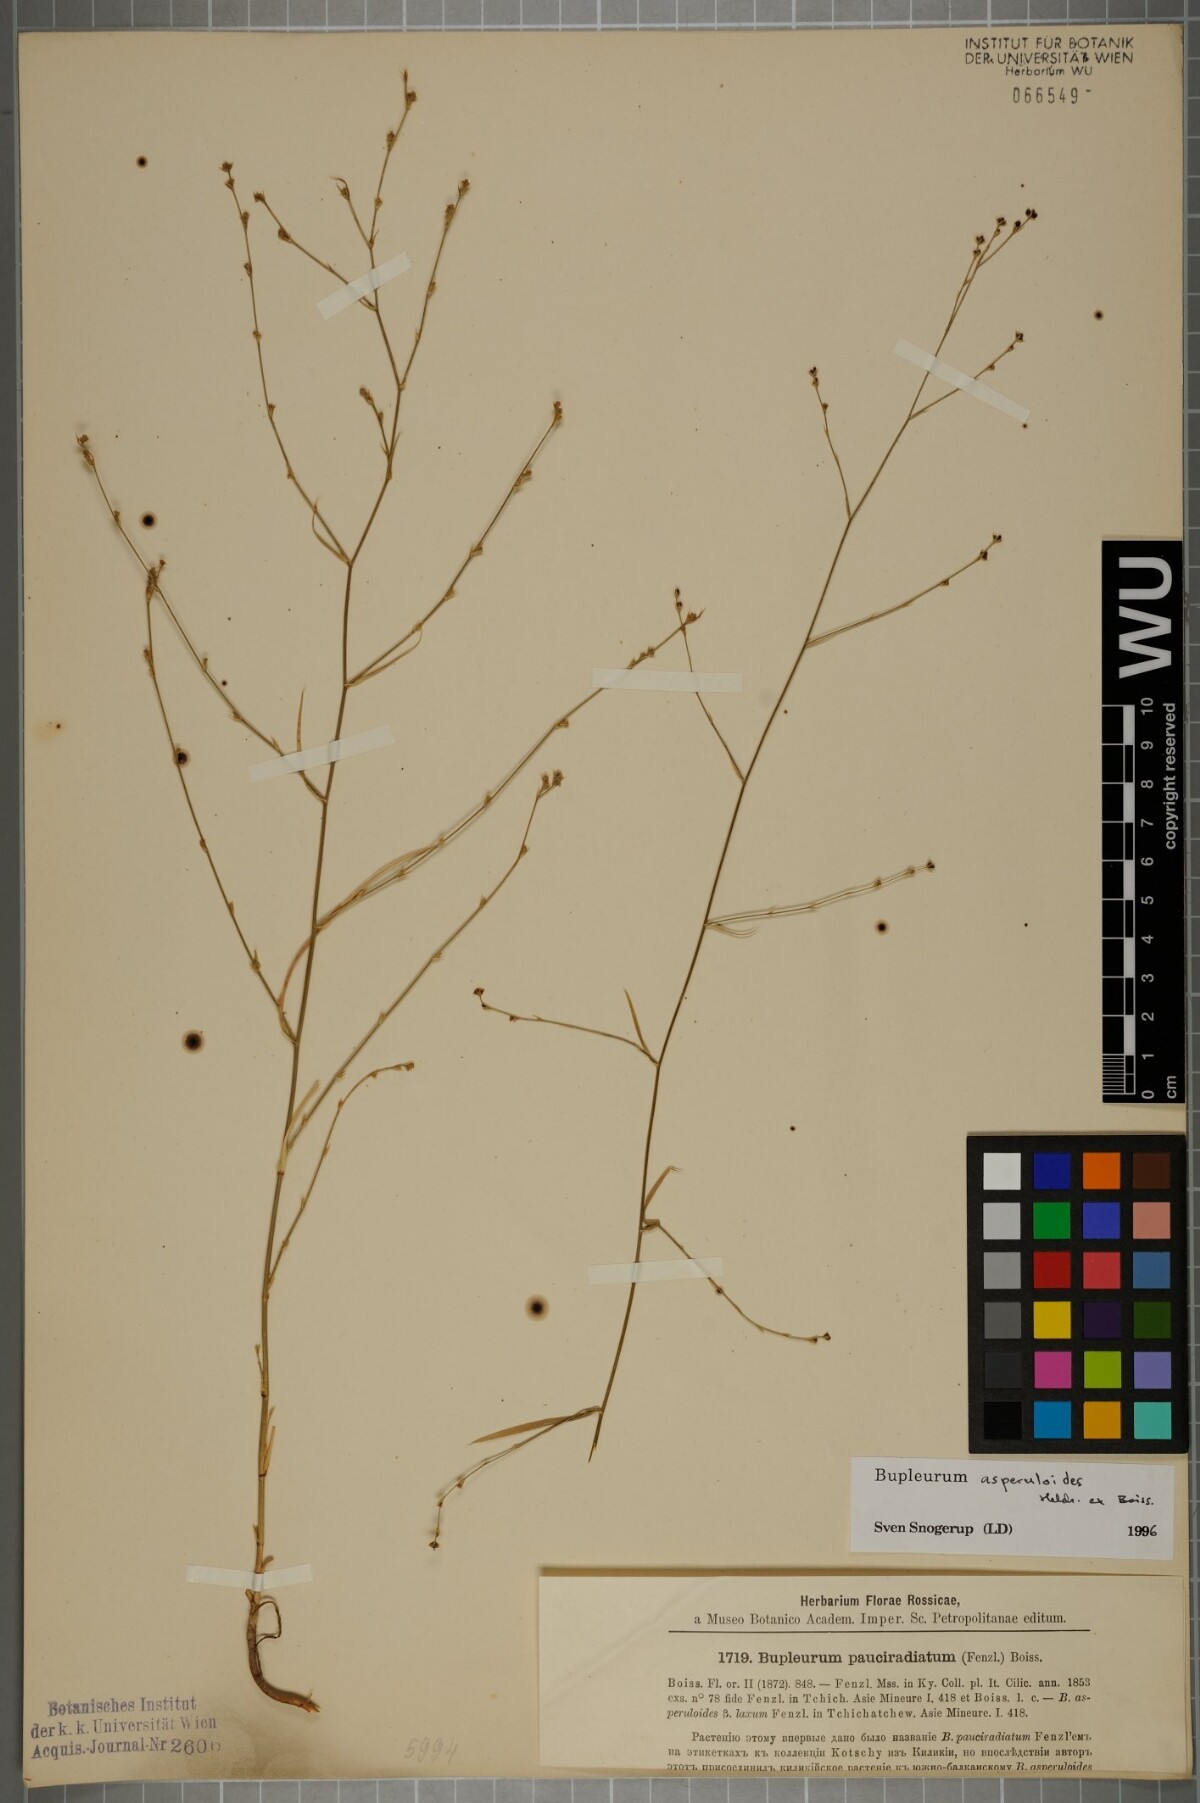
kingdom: Plantae
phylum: Tracheophyta
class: Magnoliopsida
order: Apiales
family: Apiaceae
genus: Bupleurum
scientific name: Bupleurum asperuloides
